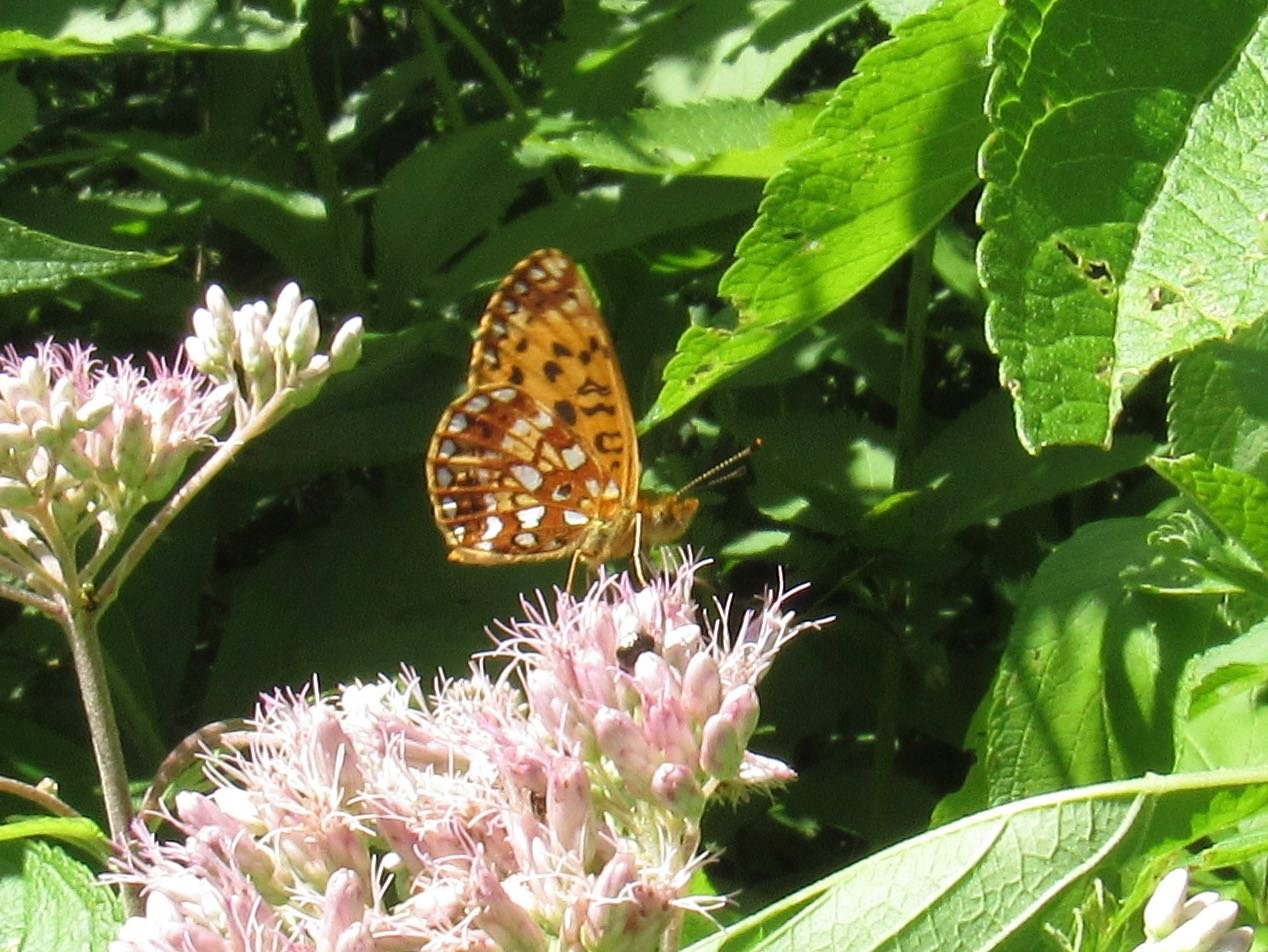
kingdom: Animalia
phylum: Arthropoda
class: Insecta
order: Lepidoptera
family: Nymphalidae
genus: Boloria
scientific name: Boloria selene
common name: Silver-bordered Fritillary
